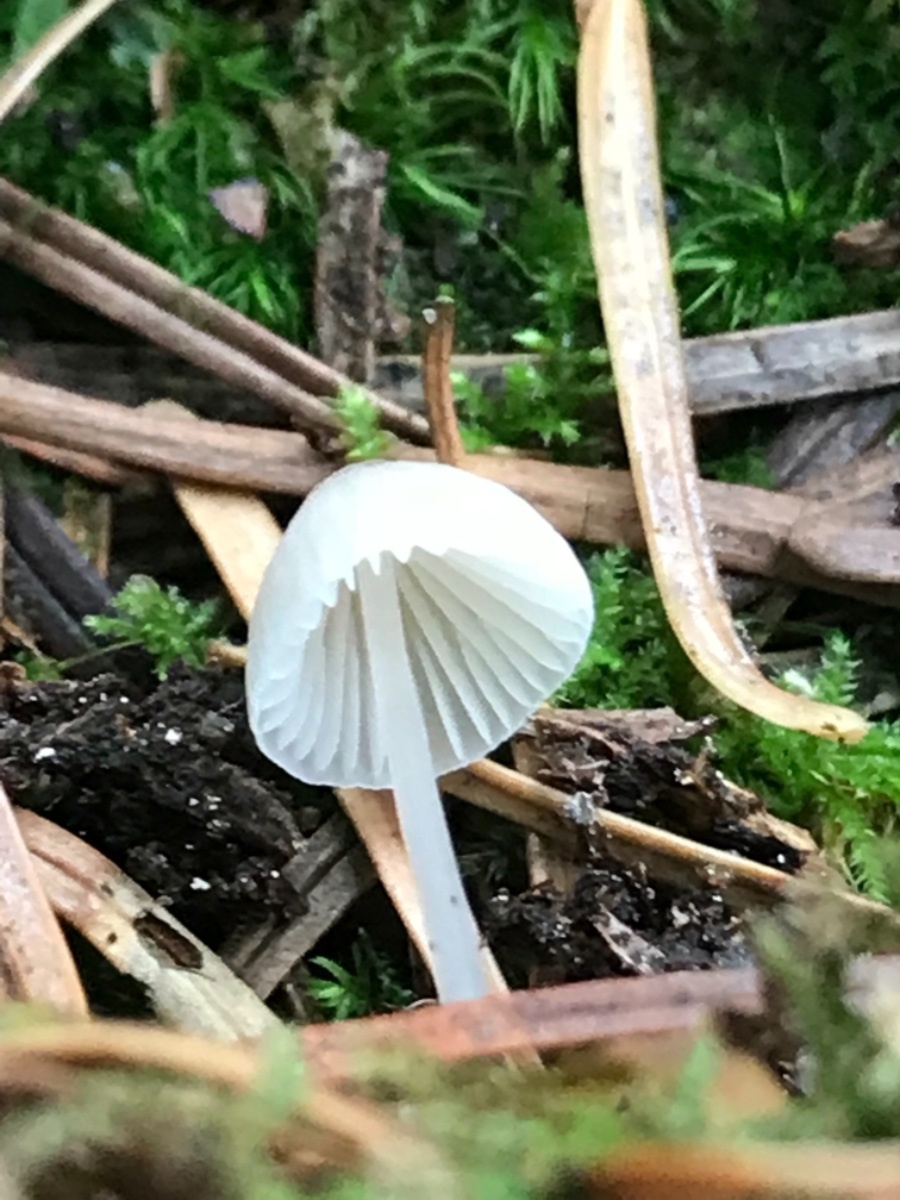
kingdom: Fungi
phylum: Basidiomycota
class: Agaricomycetes
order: Agaricales
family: Mycenaceae
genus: Mycena
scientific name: Mycena metata
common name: rødlig huesvamp
